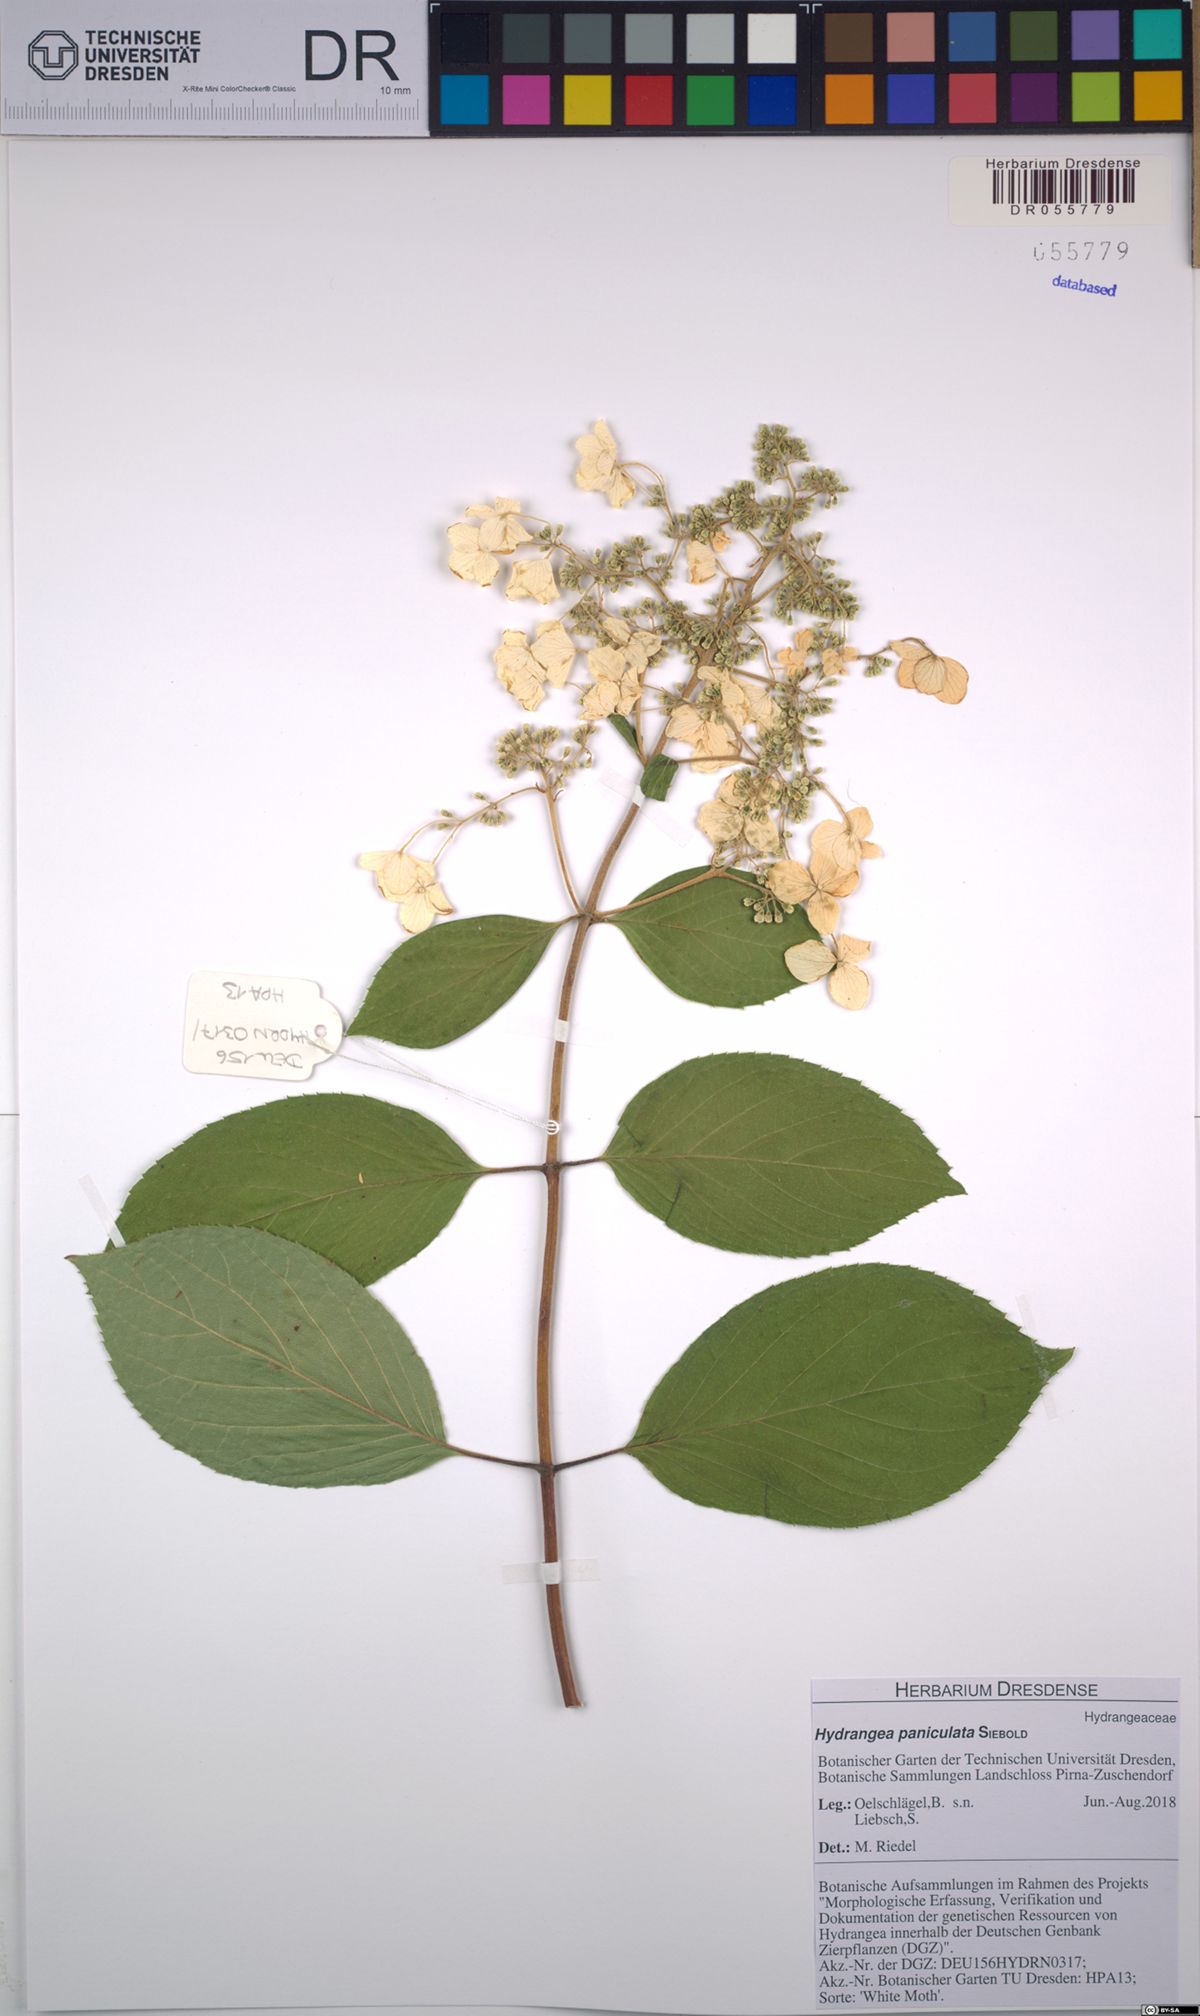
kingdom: Plantae
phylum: Tracheophyta
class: Magnoliopsida
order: Cornales
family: Hydrangeaceae
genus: Hydrangea
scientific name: Hydrangea paniculata
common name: Panicled hydrangea
